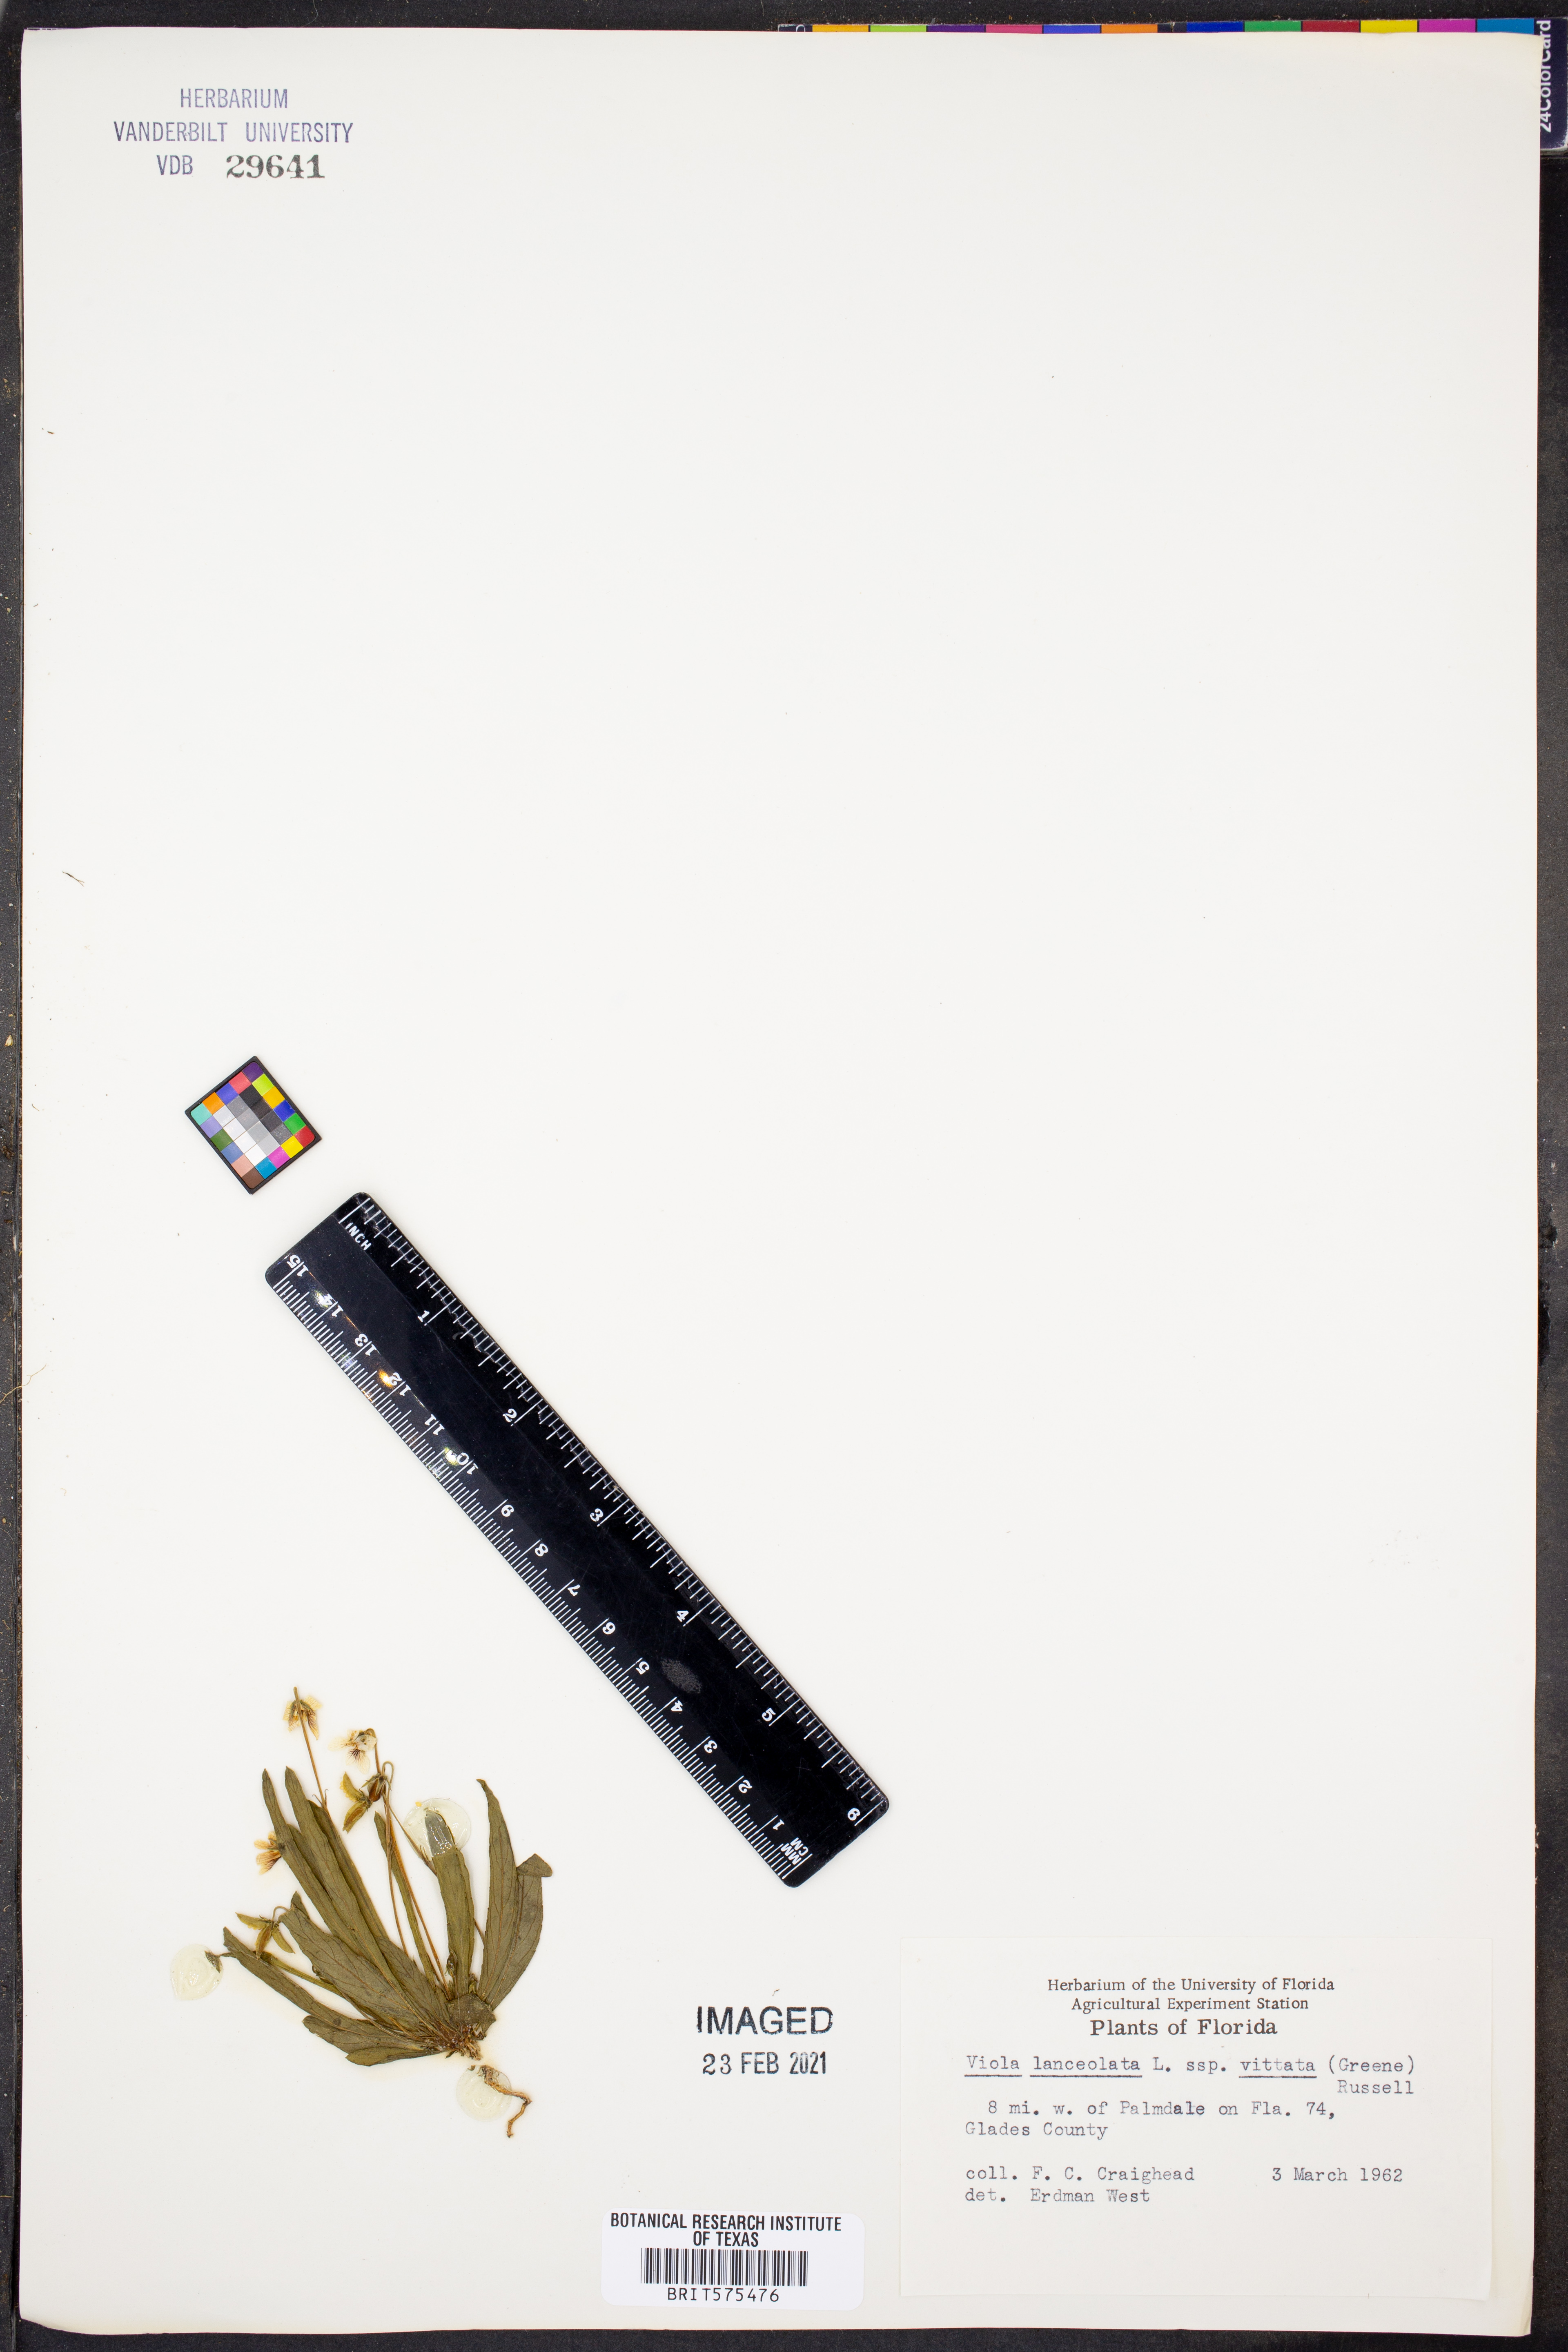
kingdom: Plantae
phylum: Tracheophyta
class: Magnoliopsida
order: Malpighiales
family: Violaceae
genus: Viola
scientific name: Viola vittata
